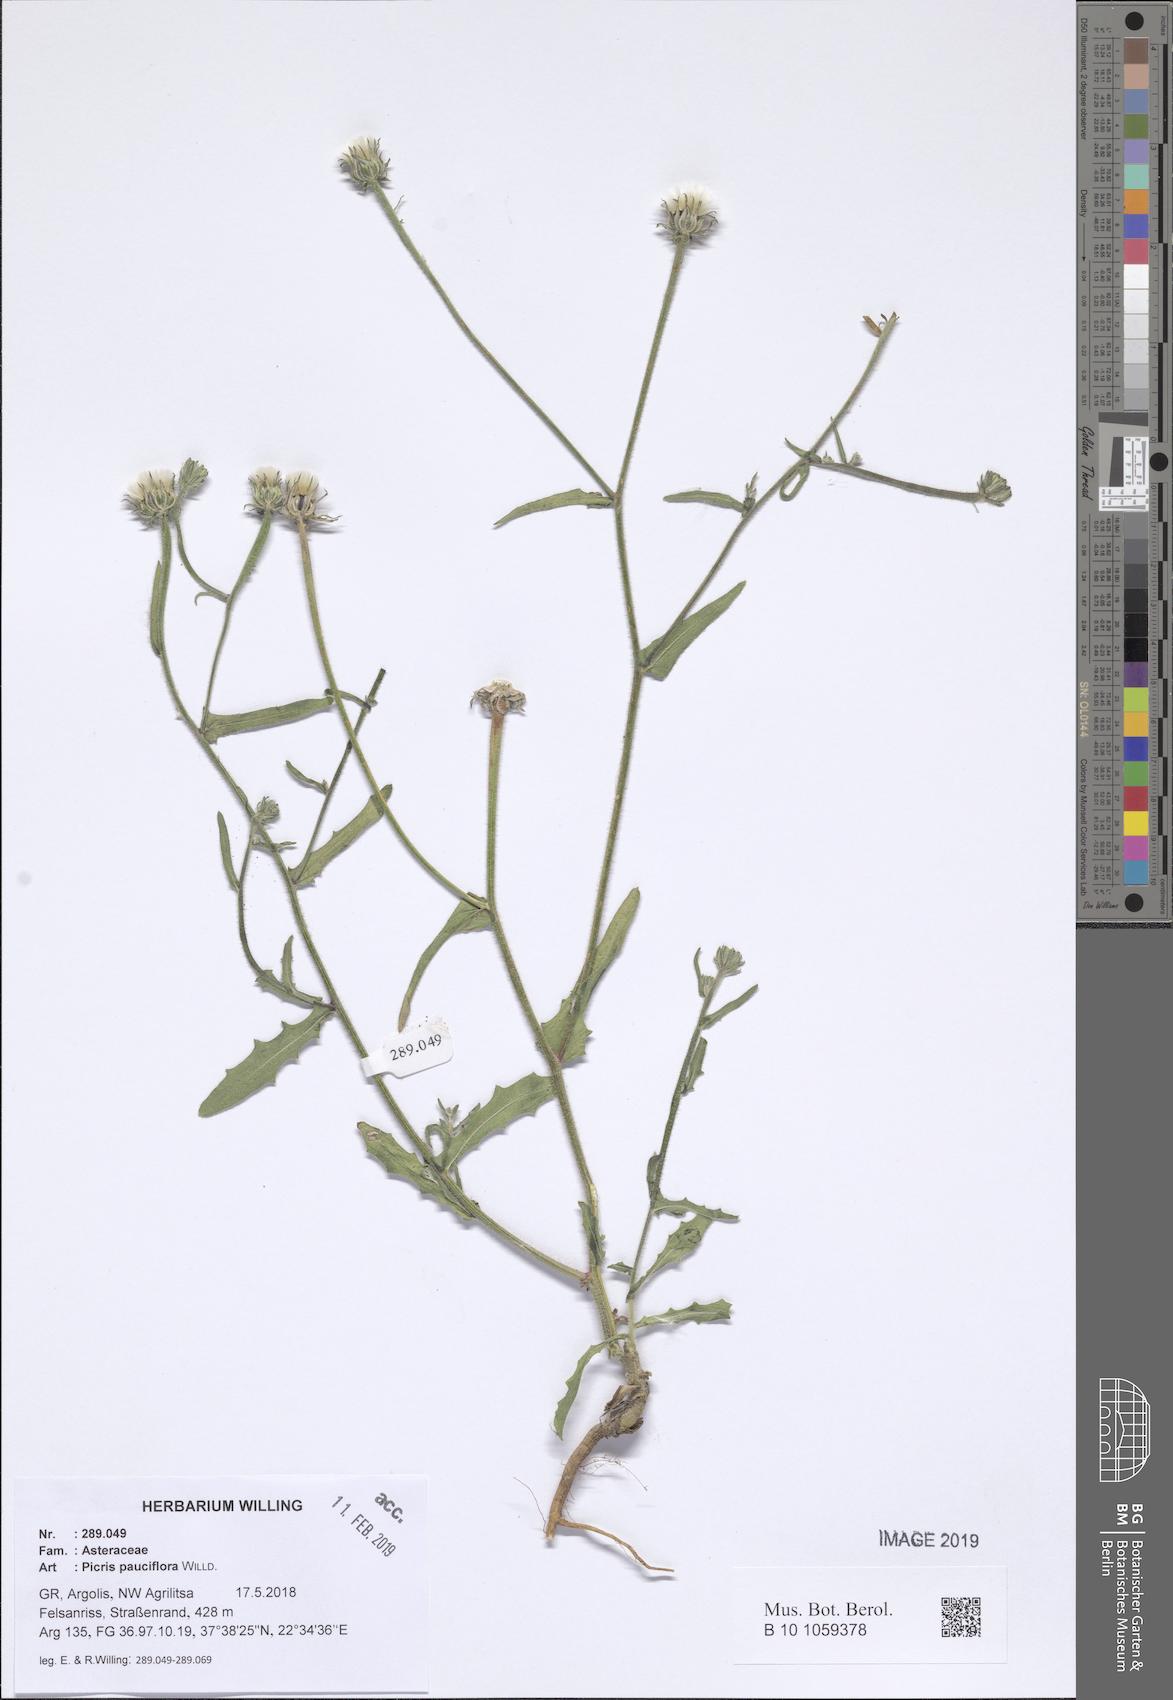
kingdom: Plantae
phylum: Tracheophyta
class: Magnoliopsida
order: Asterales
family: Asteraceae
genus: Picris
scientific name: Picris pauciflora
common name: Smallflower oxtongue
